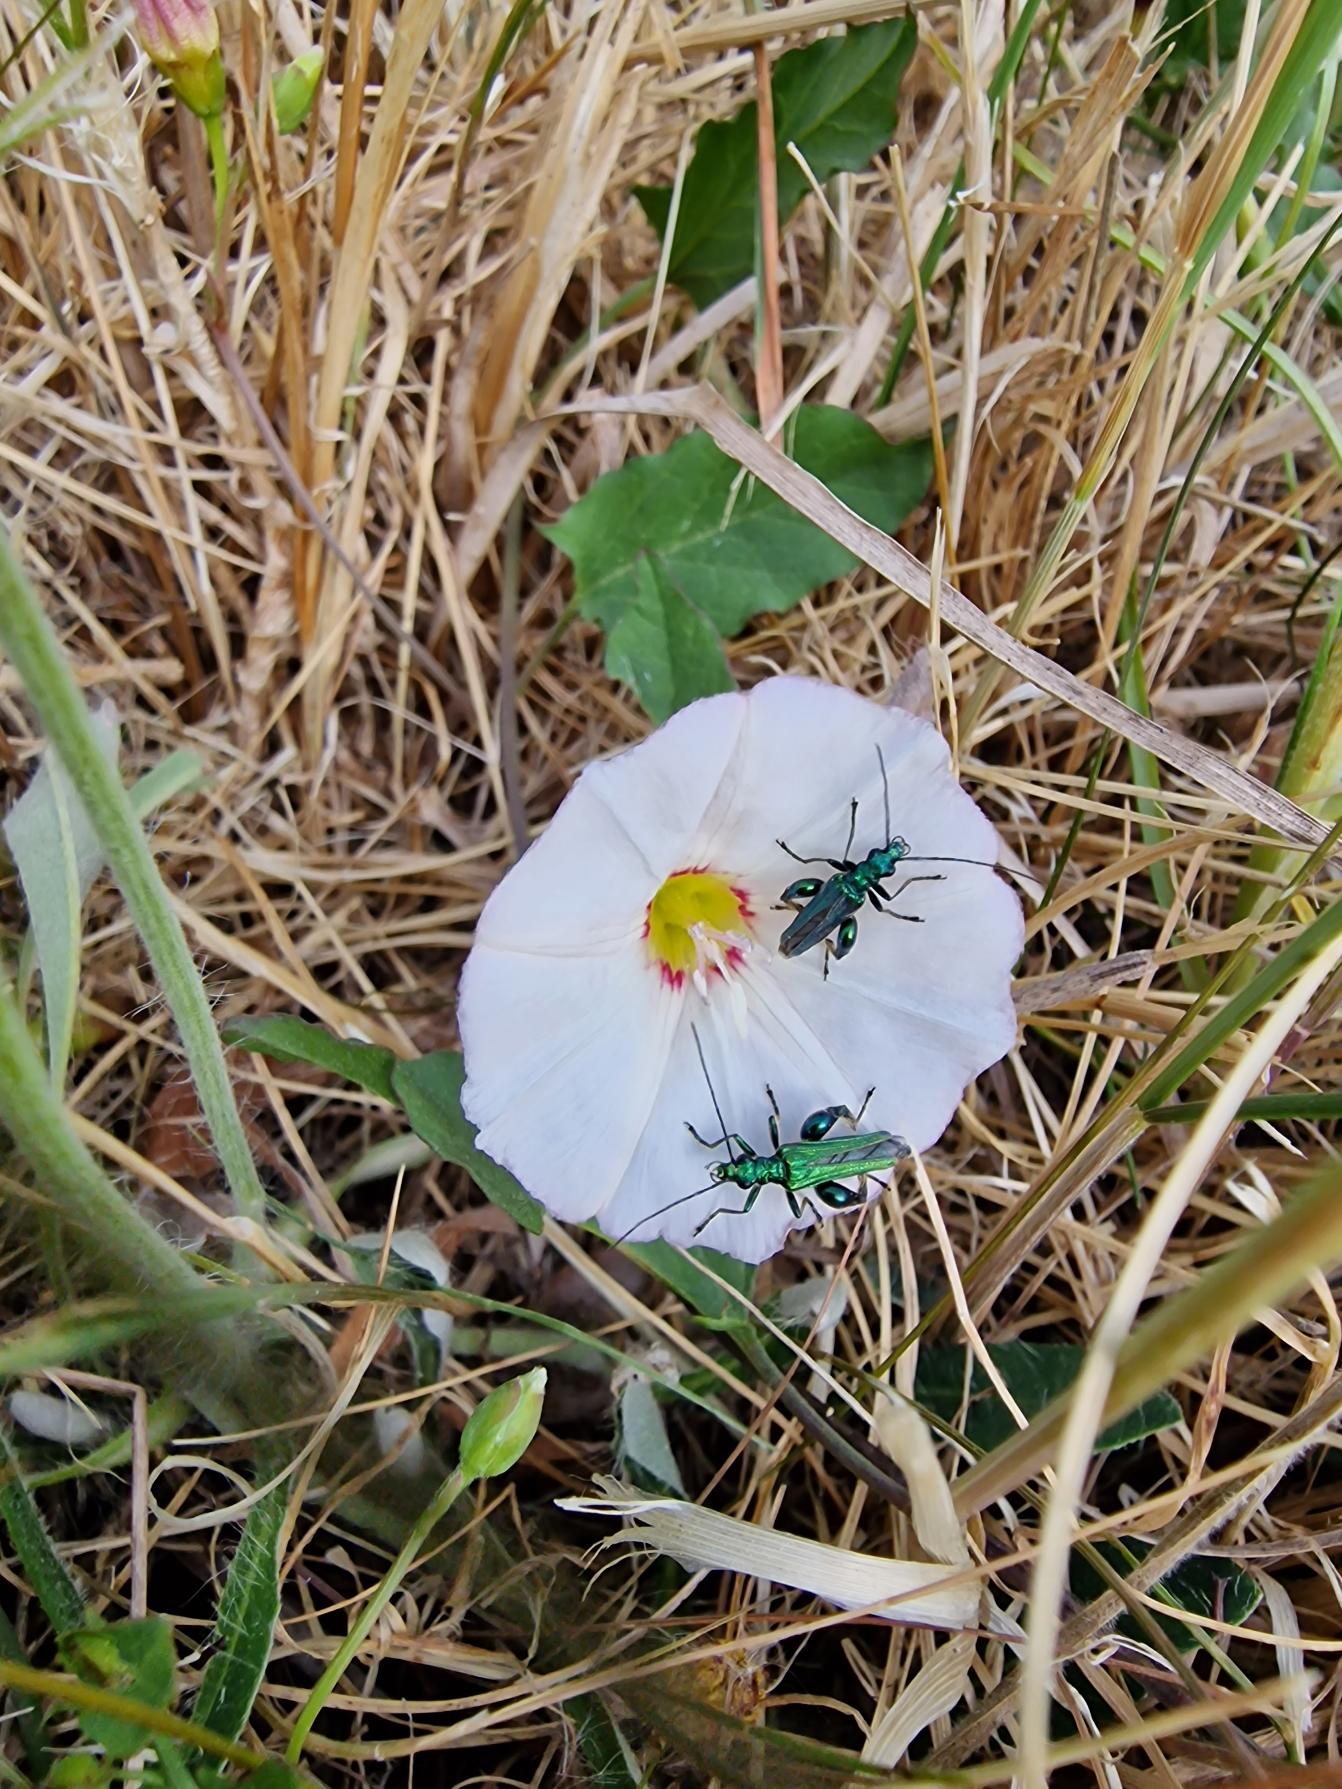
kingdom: Animalia
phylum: Arthropoda
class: Insecta
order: Coleoptera
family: Oedemeridae
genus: Oedemera
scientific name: Oedemera nobilis
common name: Tyklårssolbille
